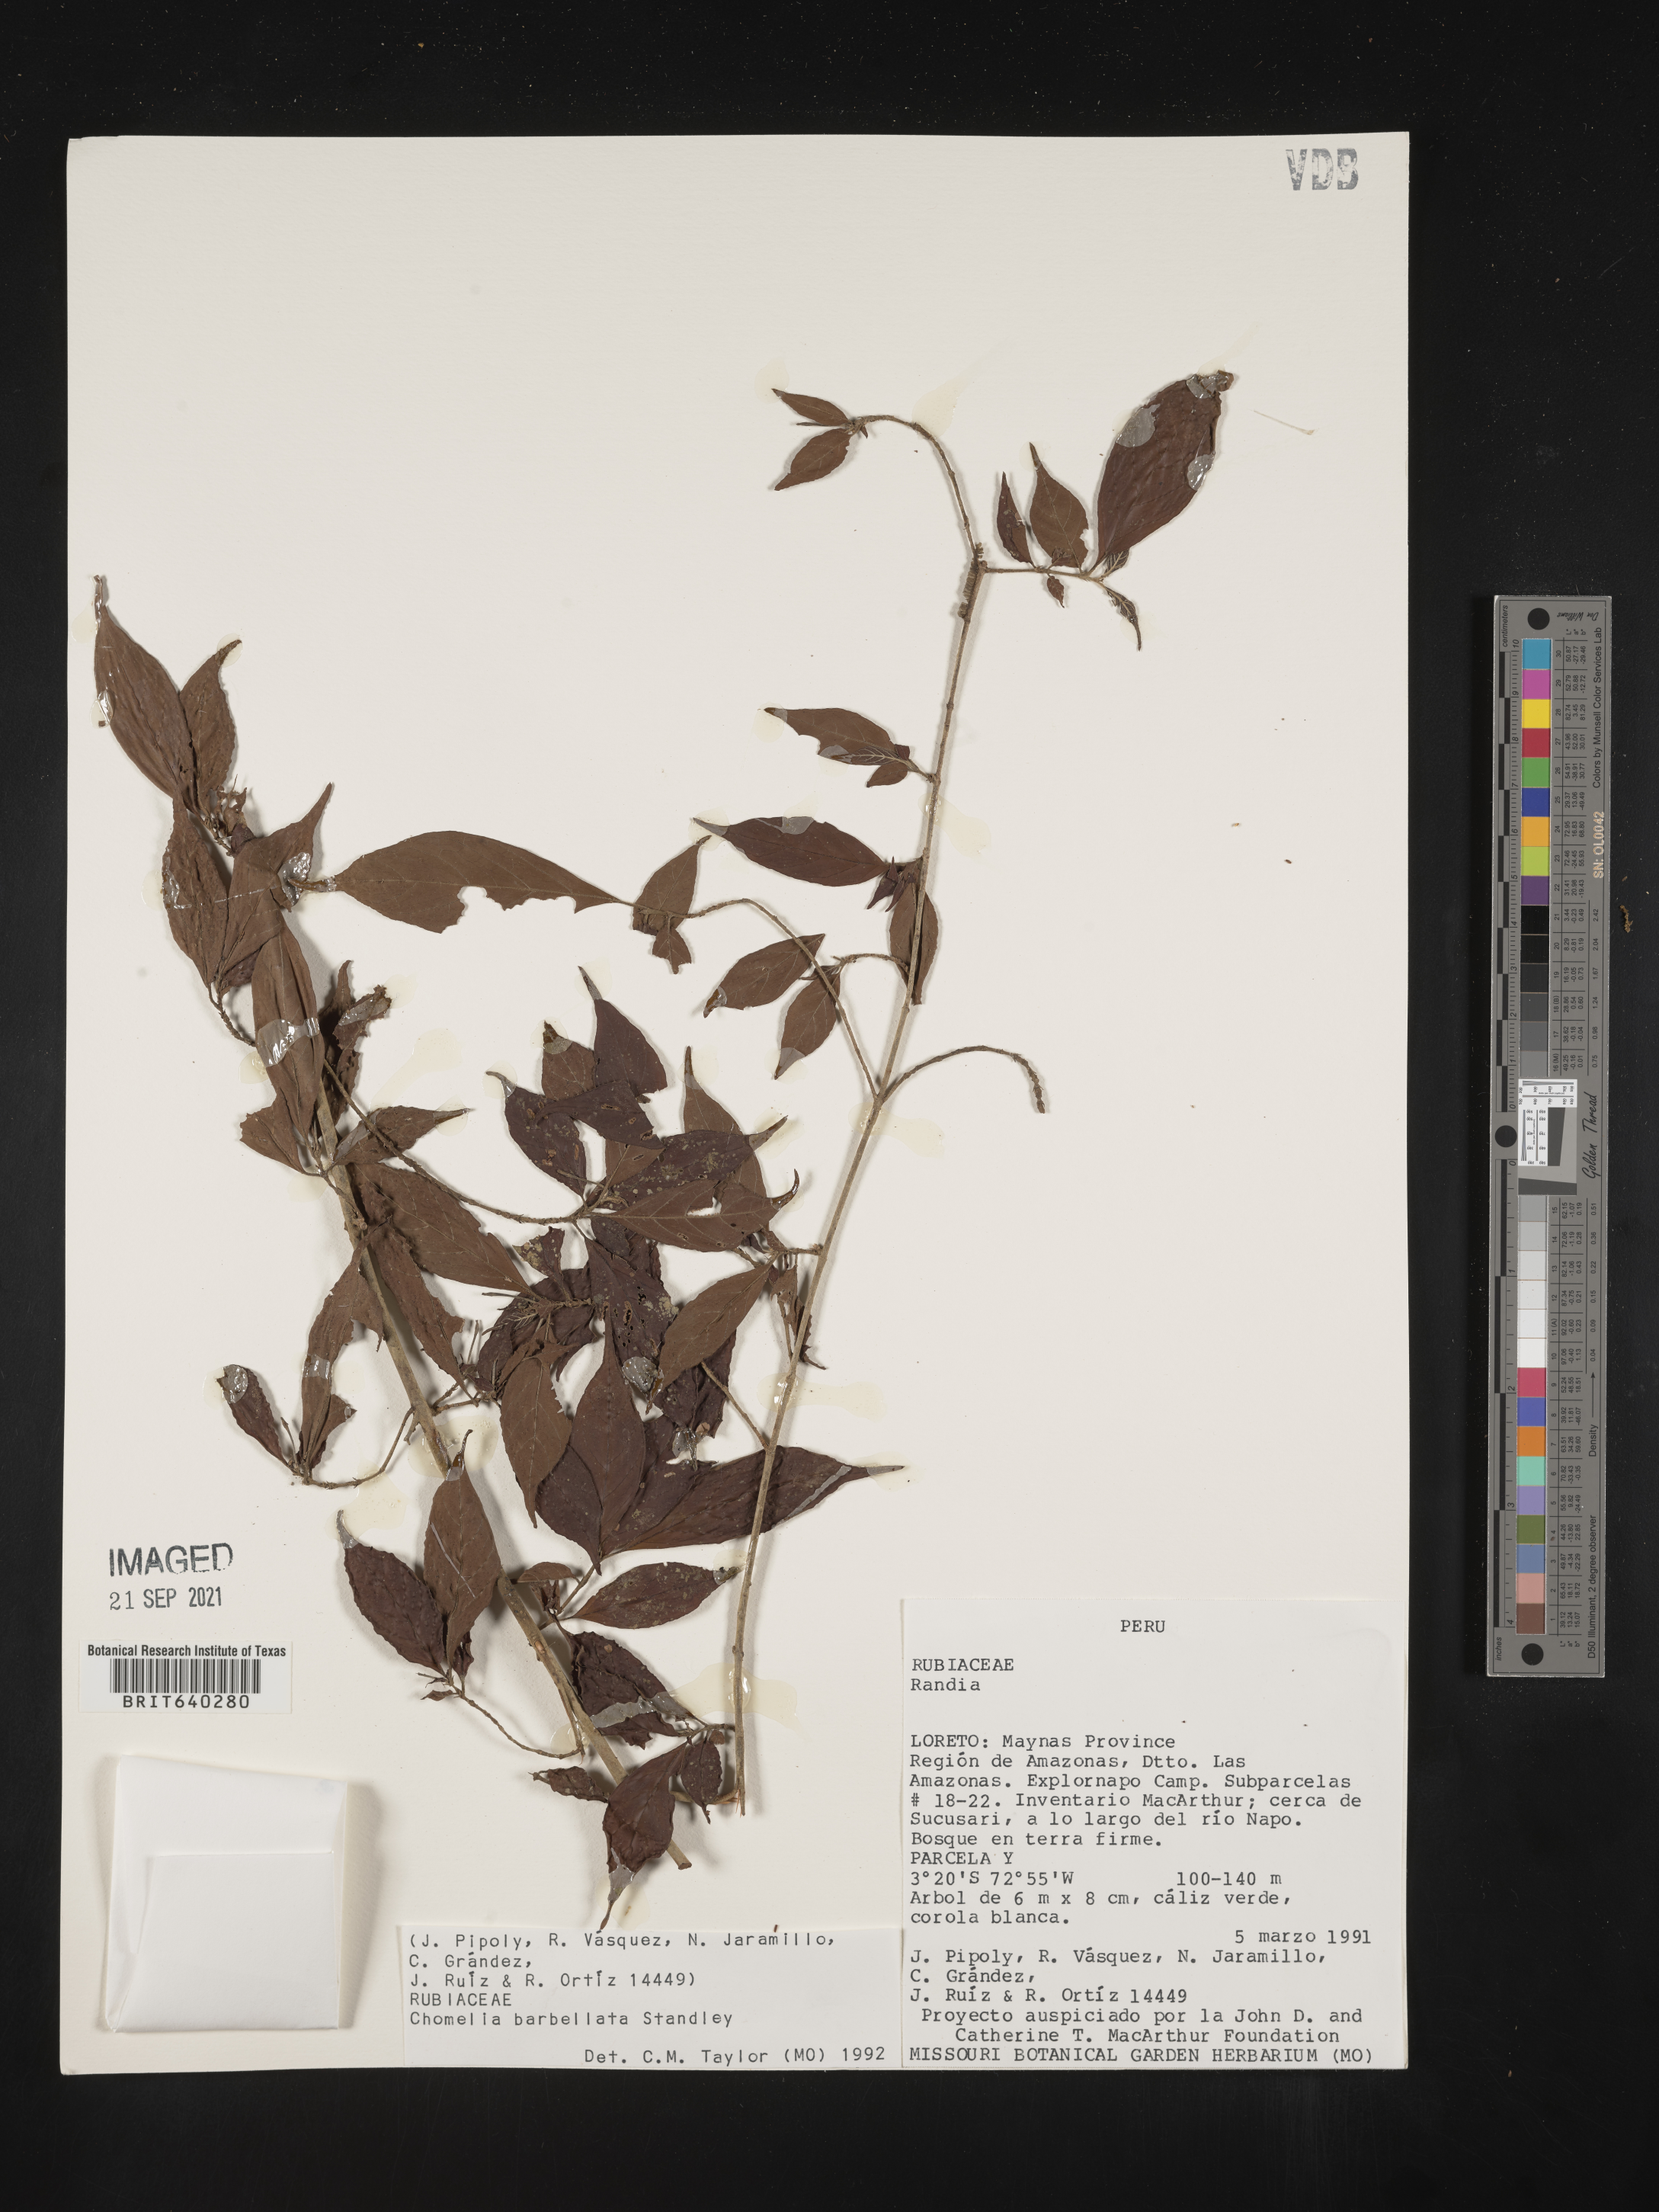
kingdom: Plantae
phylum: Tracheophyta
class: Magnoliopsida
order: Gentianales
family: Rubiaceae
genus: Chomelia
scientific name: Chomelia
